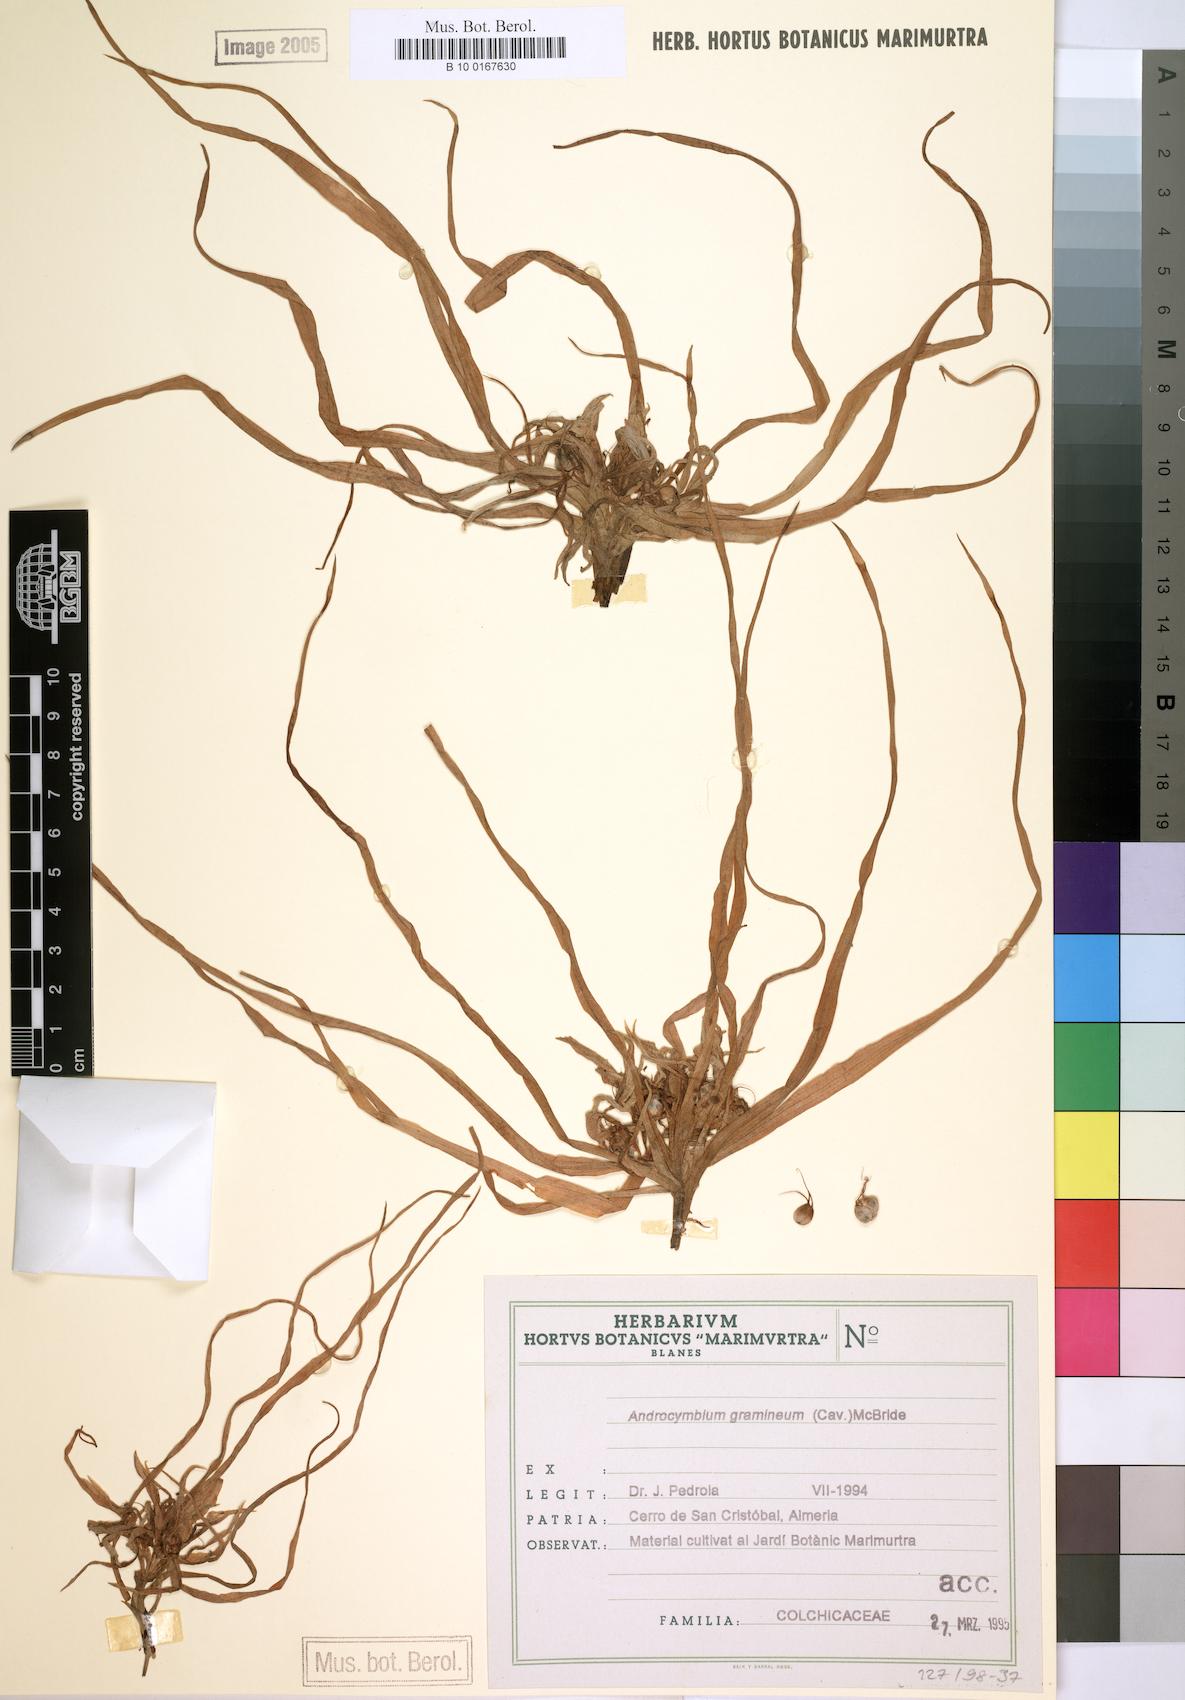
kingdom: Plantae
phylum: Tracheophyta
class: Liliopsida
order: Liliales
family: Colchicaceae
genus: Colchicum
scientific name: Colchicum gramineum
